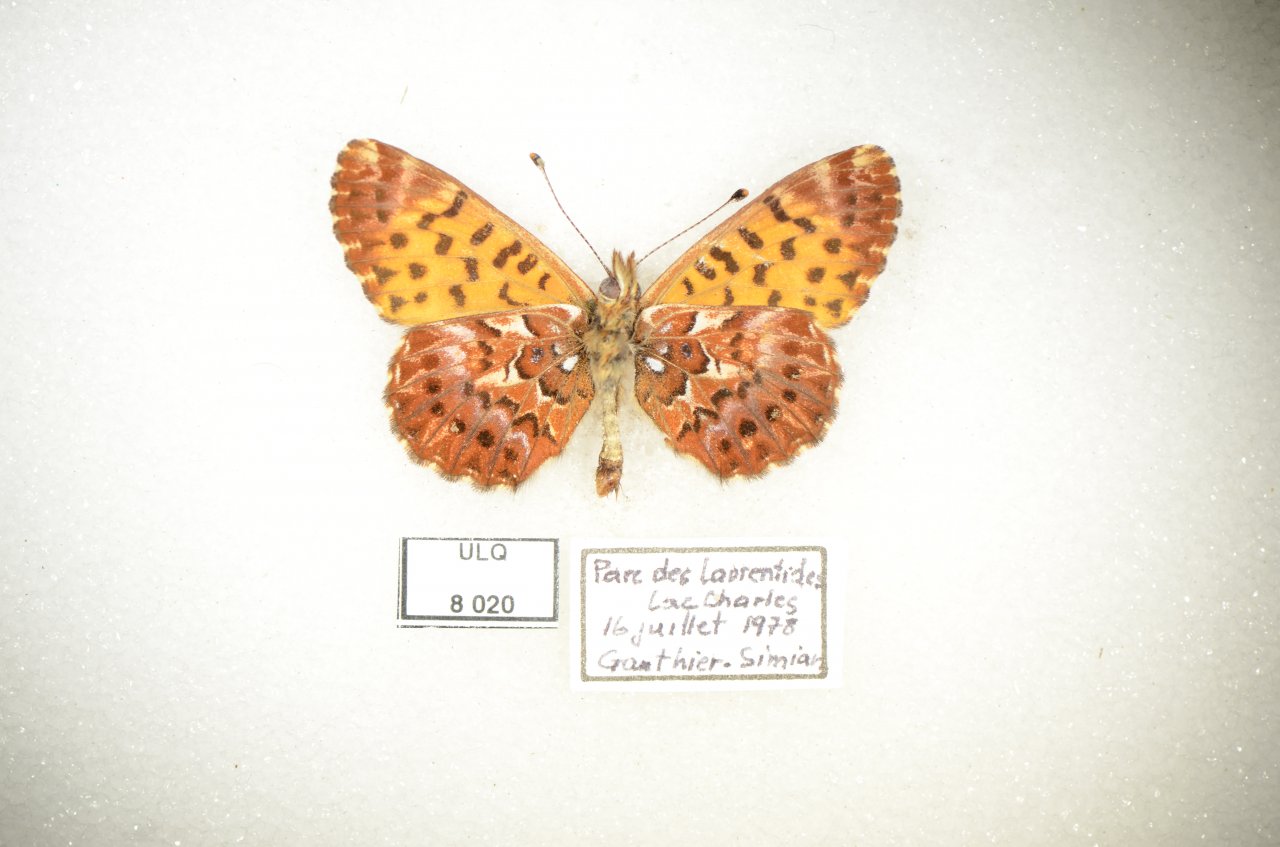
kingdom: Animalia
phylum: Arthropoda
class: Insecta
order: Lepidoptera
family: Nymphalidae
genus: Boloria
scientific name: Boloria chariclea
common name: Arctic Fritillary
